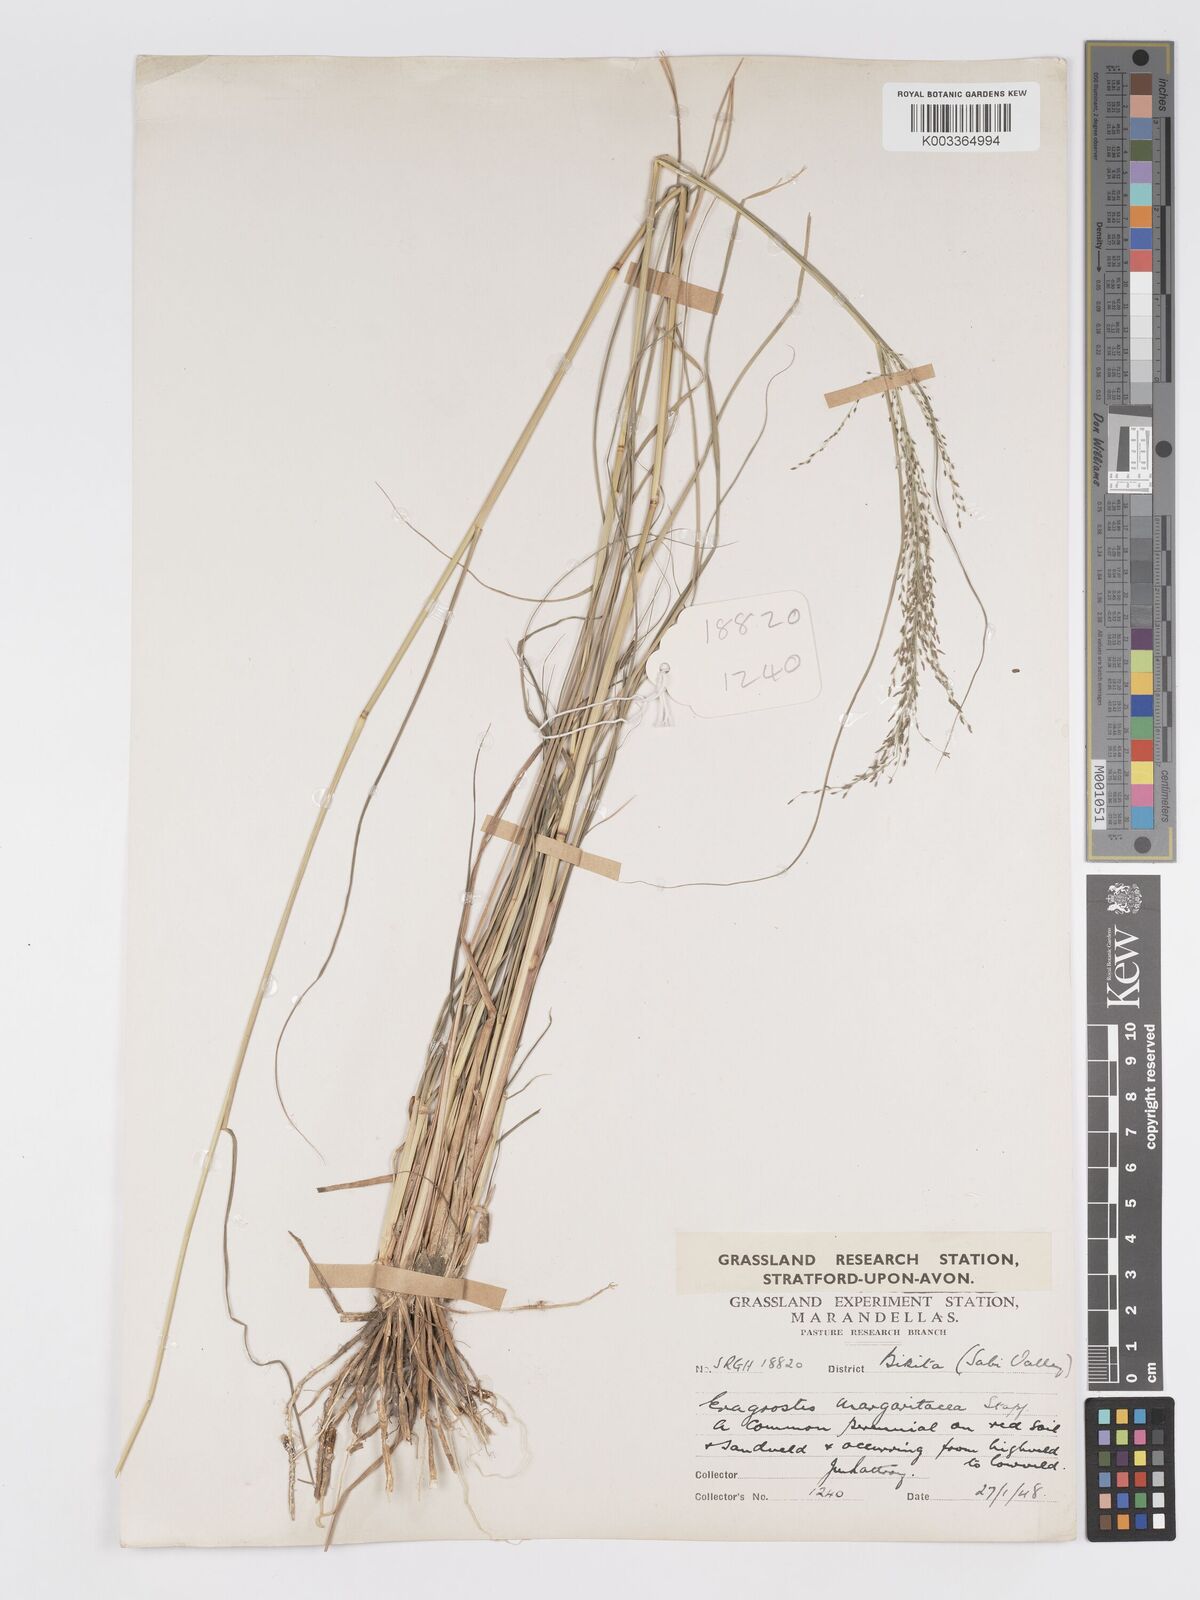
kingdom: Plantae
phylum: Tracheophyta
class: Liliopsida
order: Poales
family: Poaceae
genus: Eragrostis
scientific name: Eragrostis rotifer
